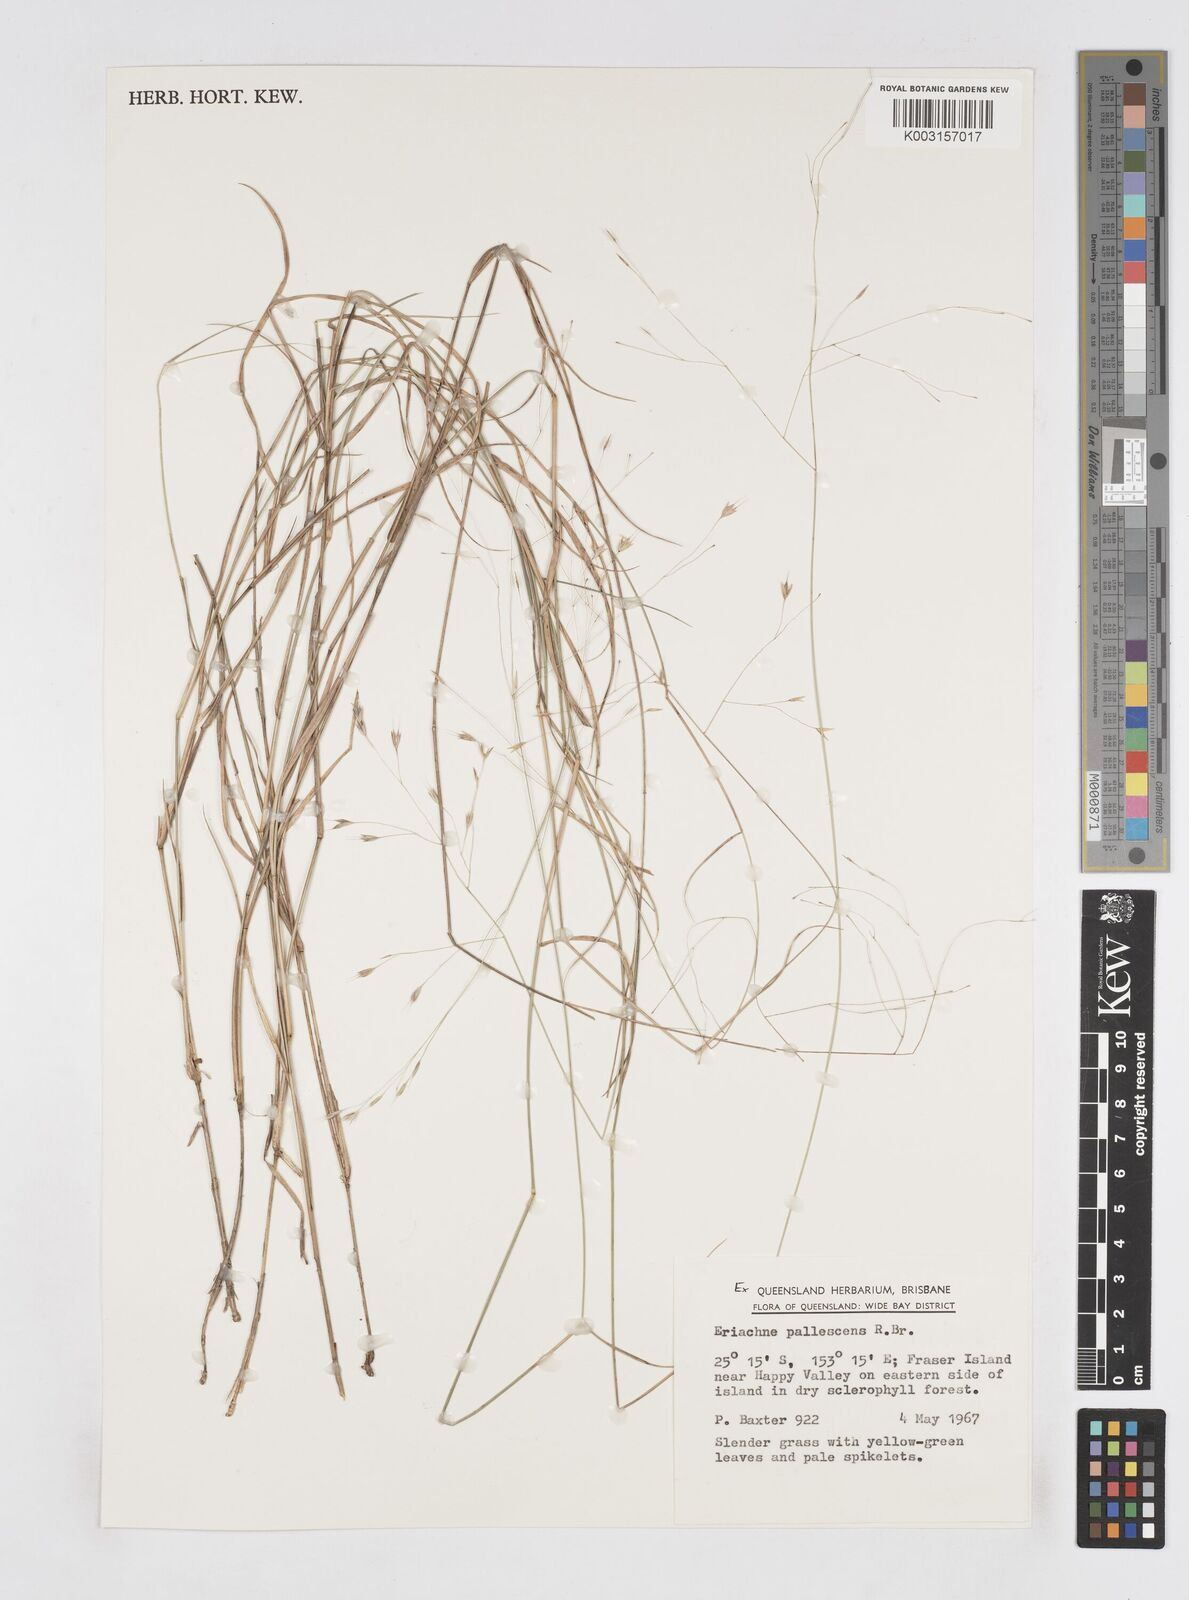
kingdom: Plantae
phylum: Tracheophyta
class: Liliopsida
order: Poales
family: Poaceae
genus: Eriachne
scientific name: Eriachne pallescens
